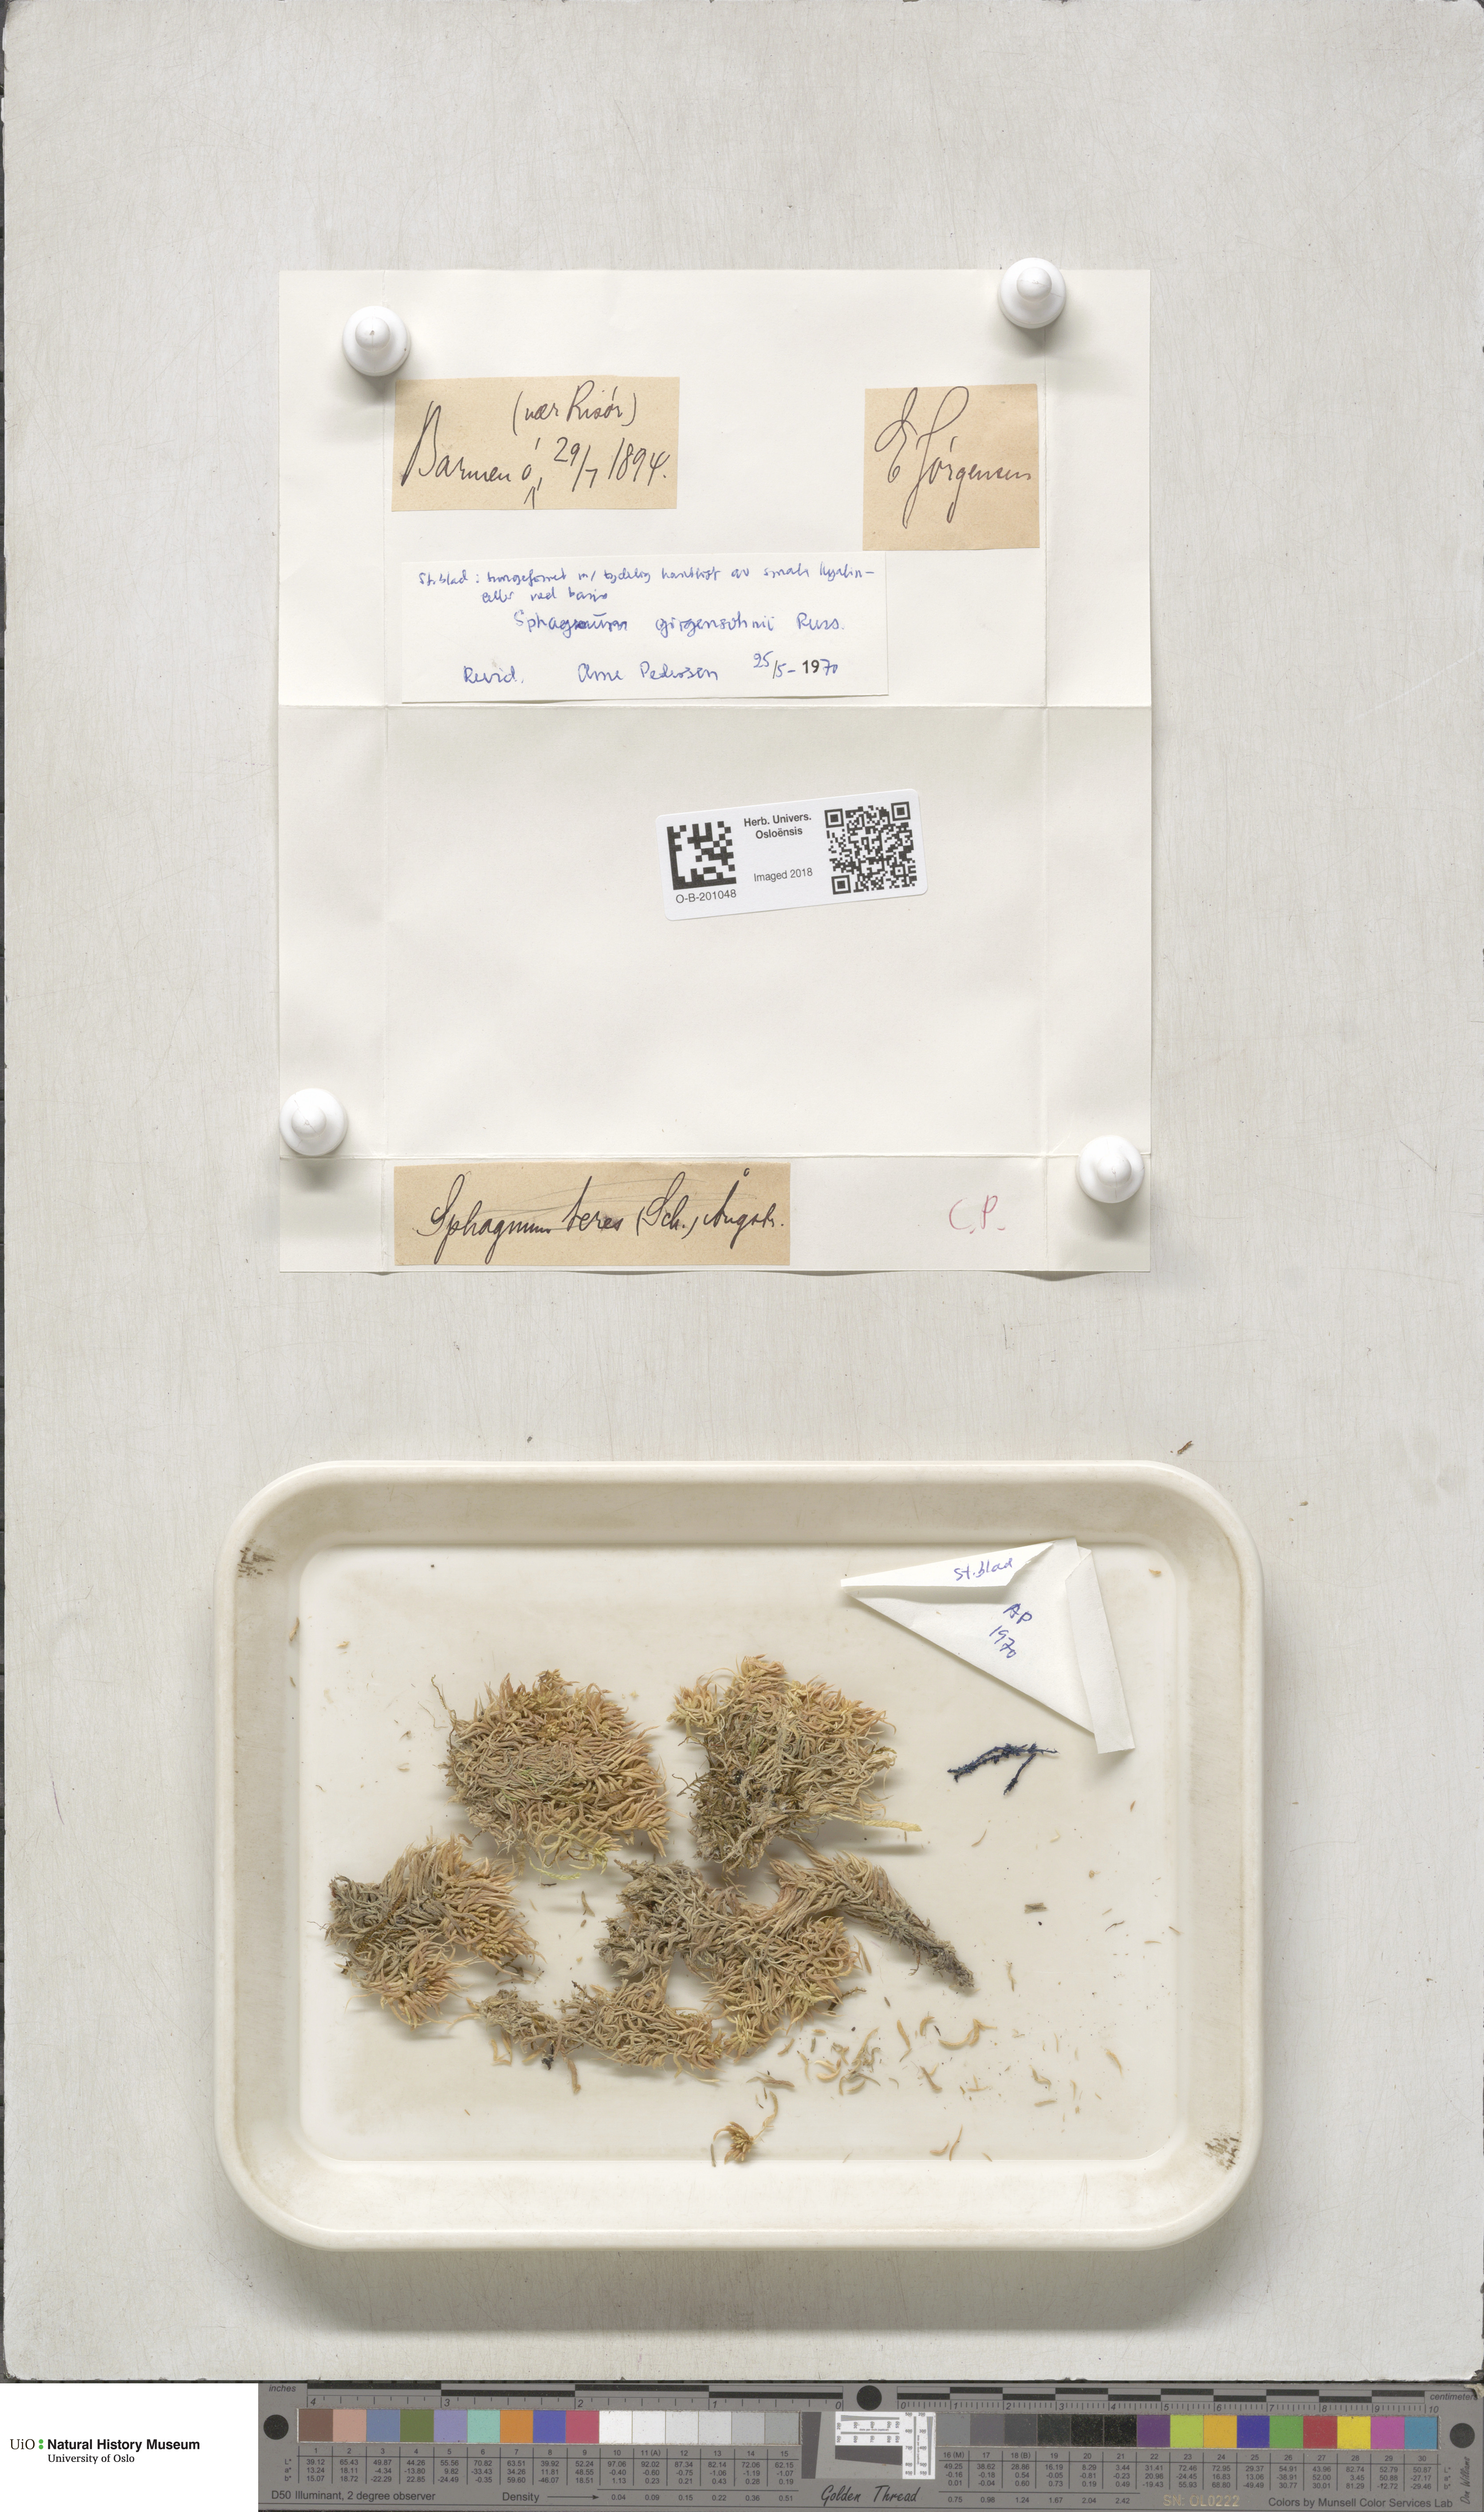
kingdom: Plantae
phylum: Bryophyta
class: Sphagnopsida
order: Sphagnales
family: Sphagnaceae
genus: Sphagnum
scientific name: Sphagnum girgensohnii
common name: Girgensohn's peat moss
